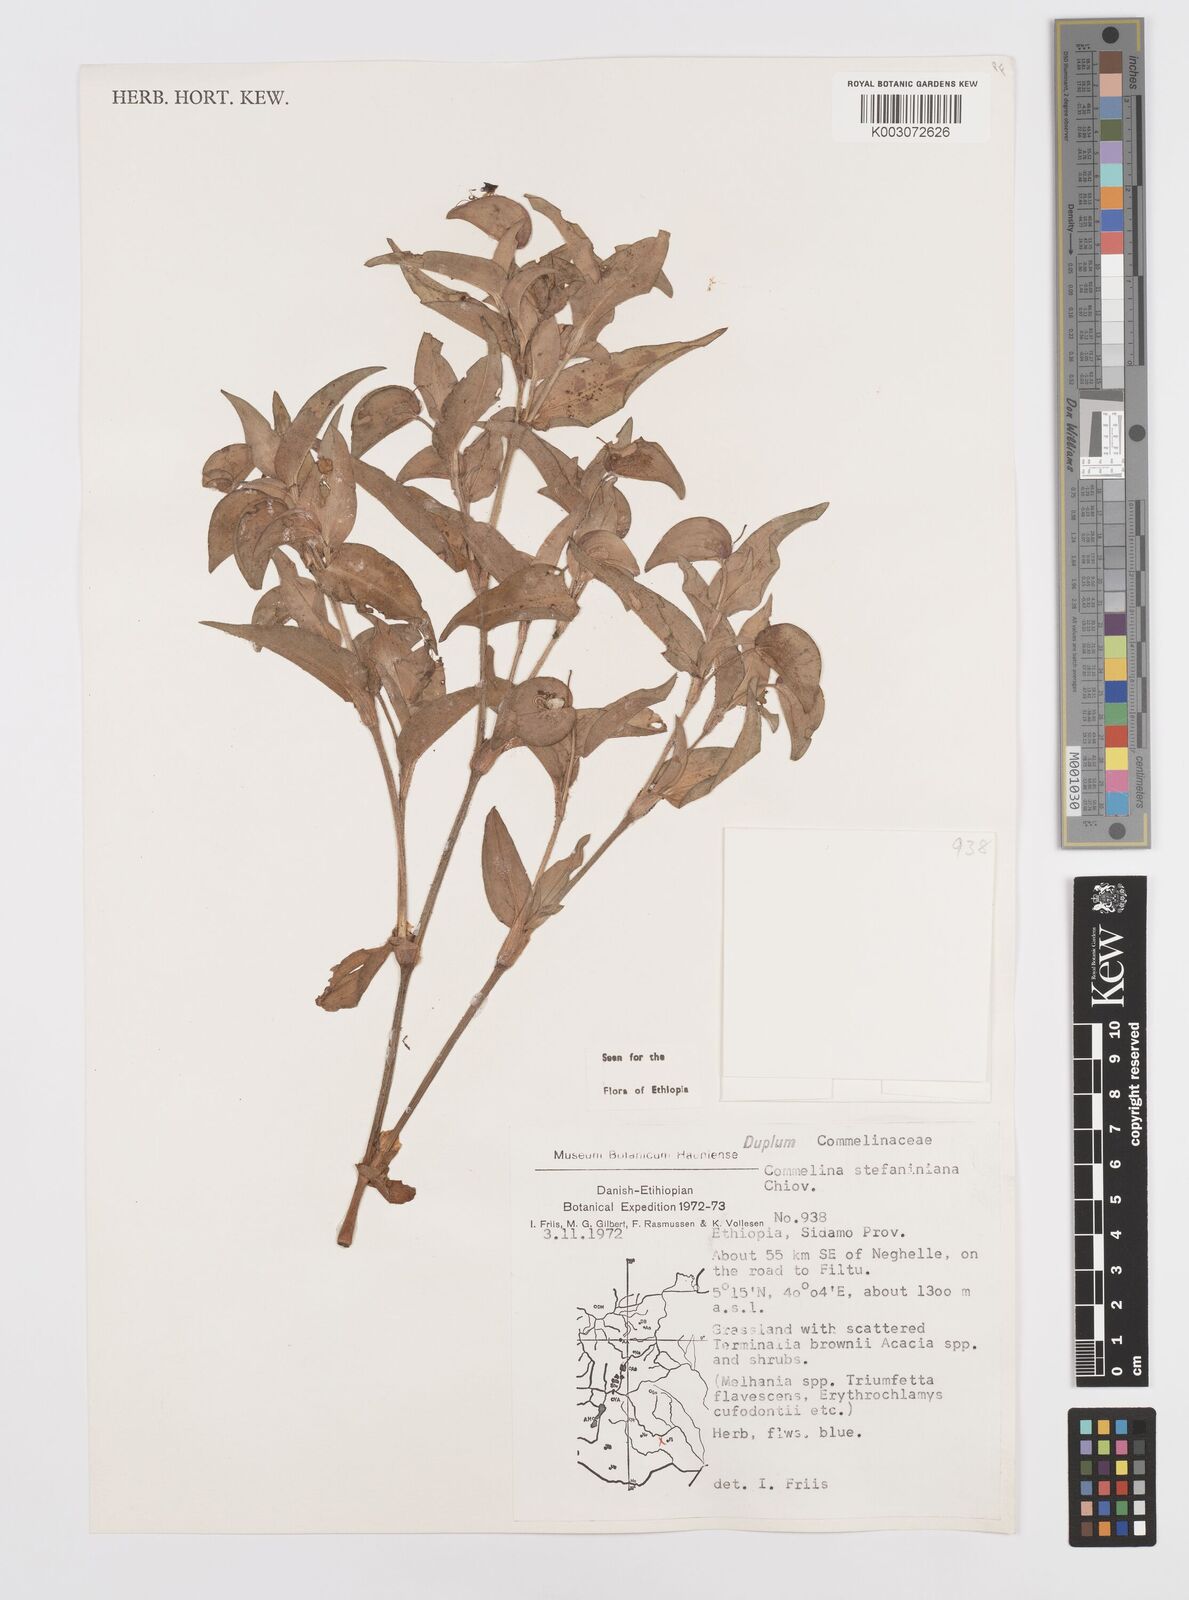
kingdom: Plantae
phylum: Tracheophyta
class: Liliopsida
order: Commelinales
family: Commelinaceae
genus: Commelina
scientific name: Commelina stefaniniana
